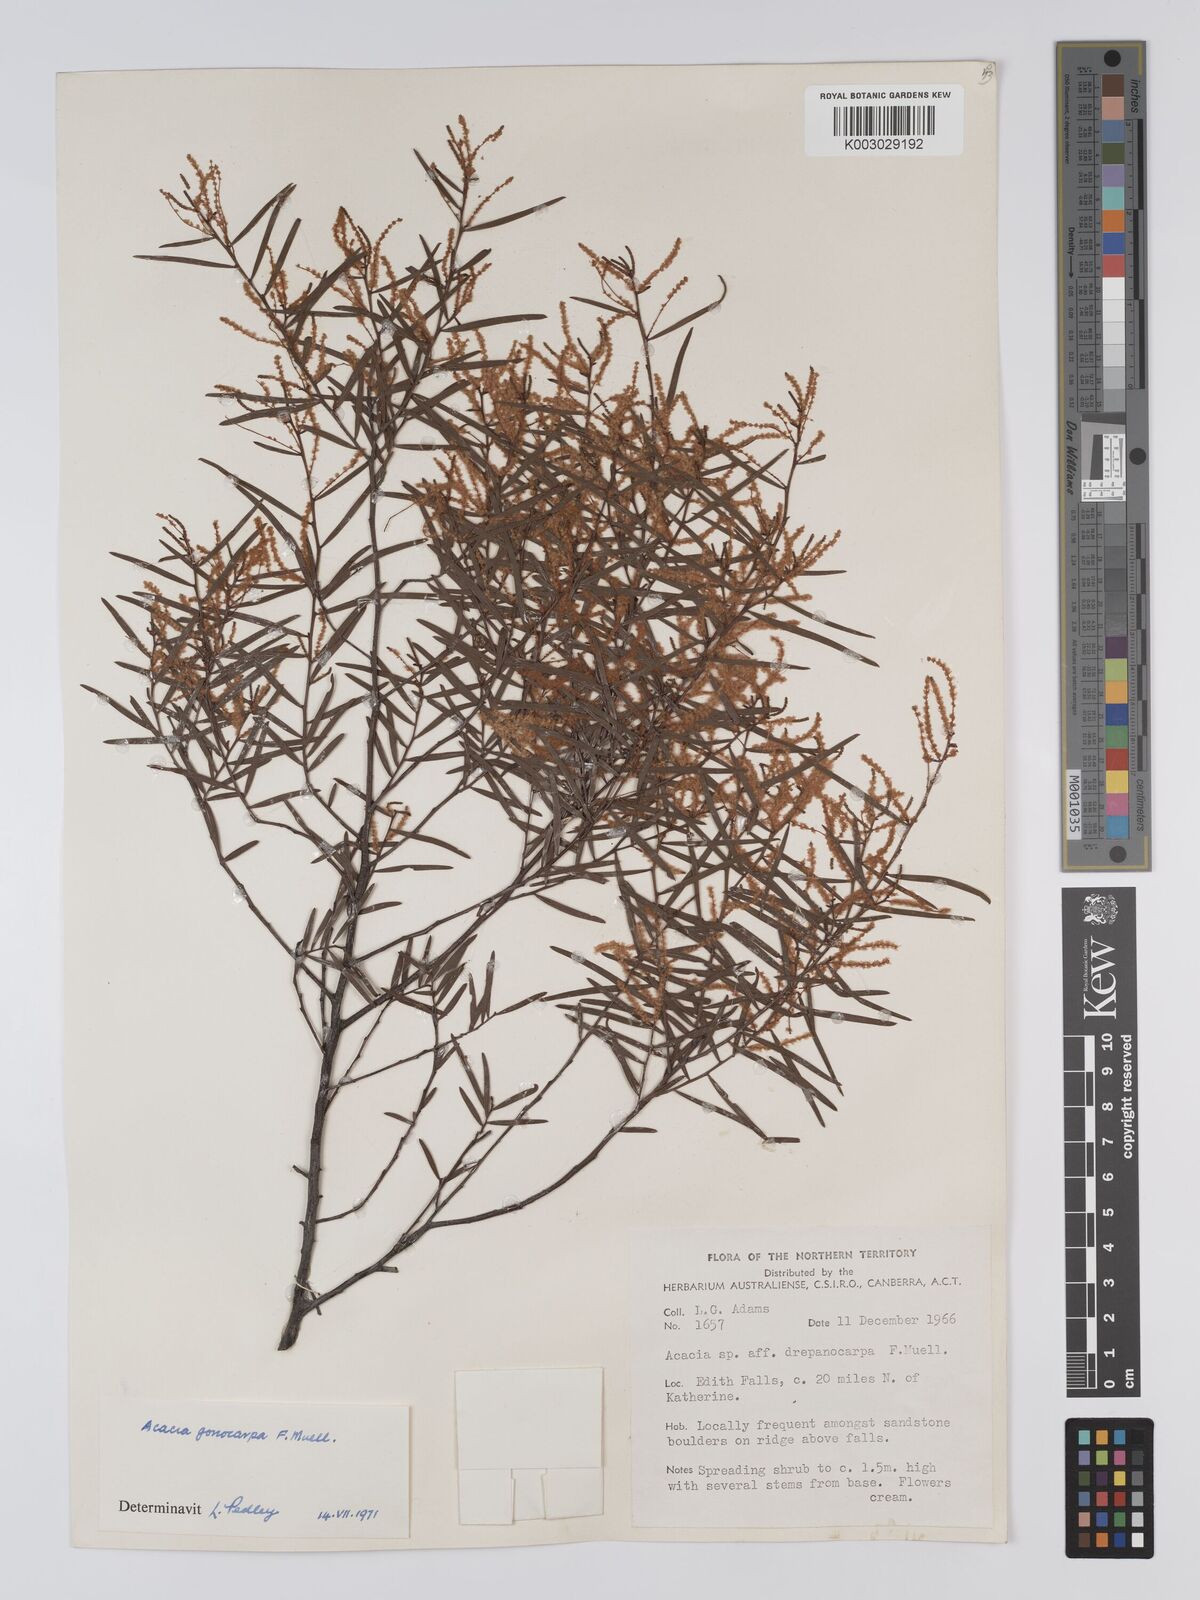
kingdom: Plantae
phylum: Tracheophyta
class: Magnoliopsida
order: Fabales
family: Fabaceae
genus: Acacia
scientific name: Acacia gonocarpa
